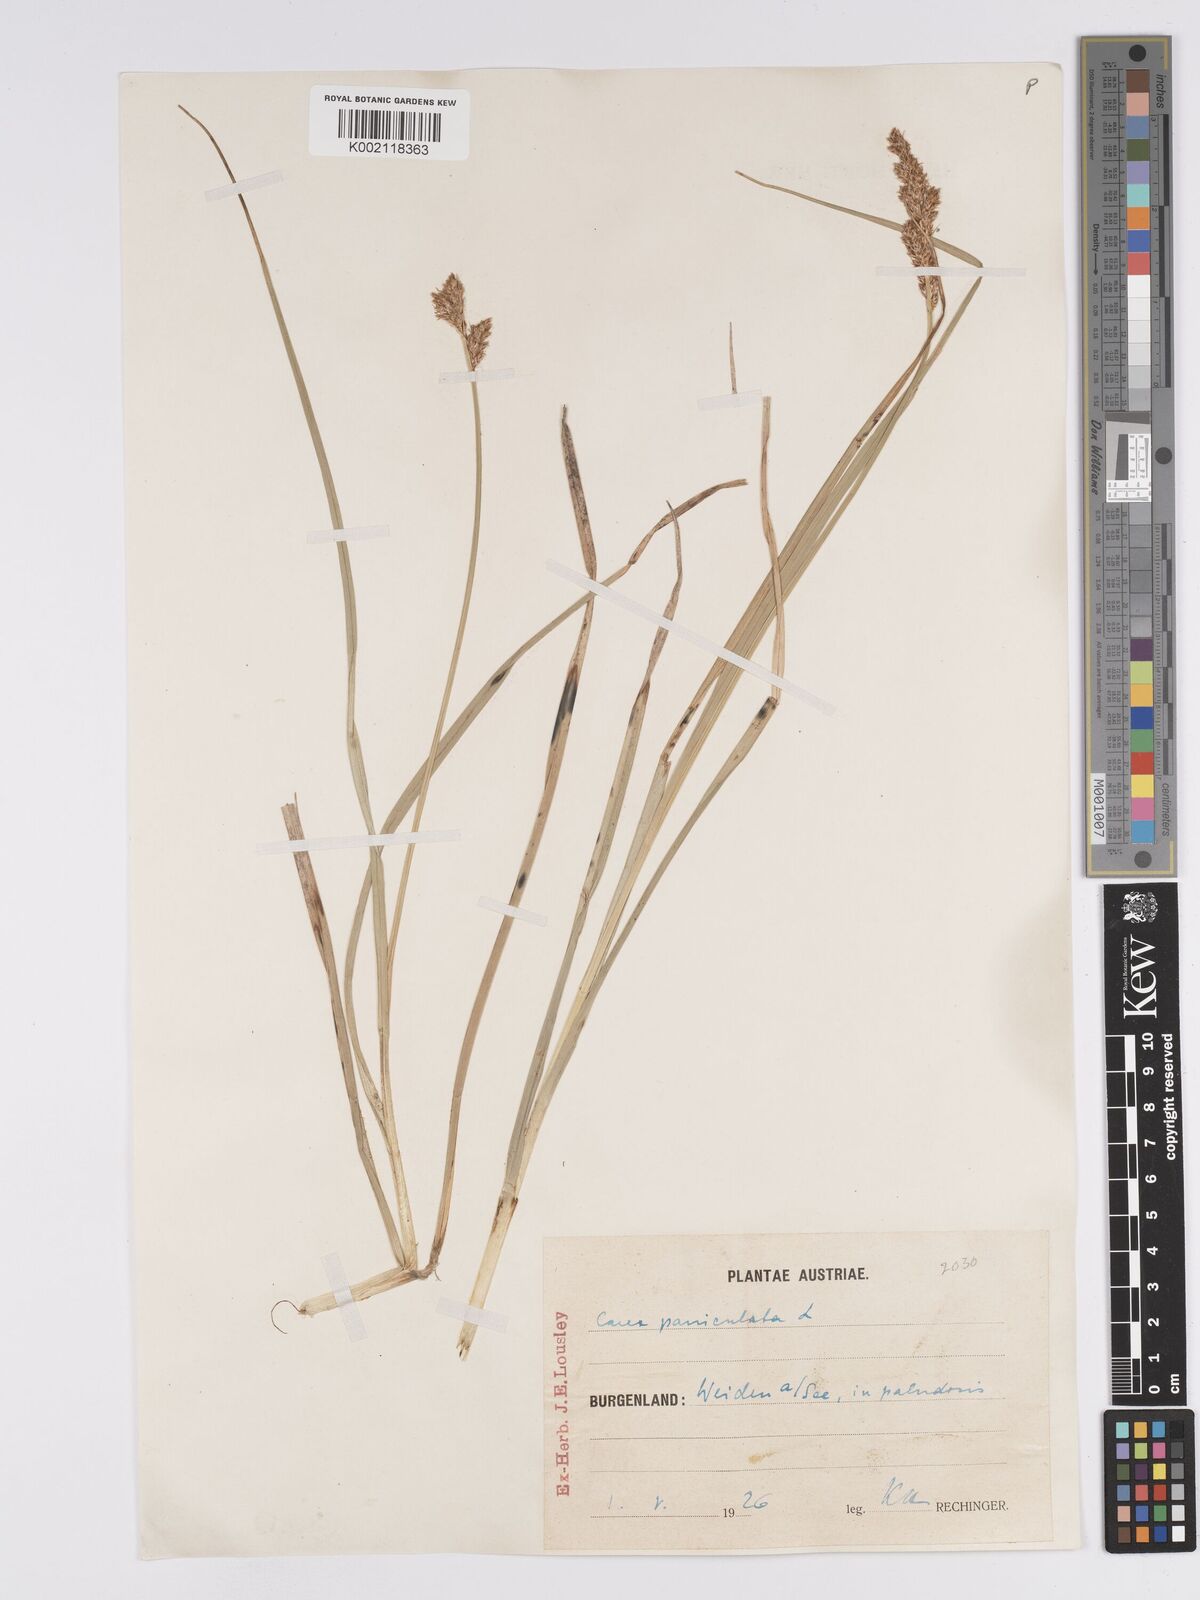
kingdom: Plantae
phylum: Tracheophyta
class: Liliopsida
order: Poales
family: Cyperaceae
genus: Carex
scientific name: Carex paniculata
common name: Greater tussock-sedge
